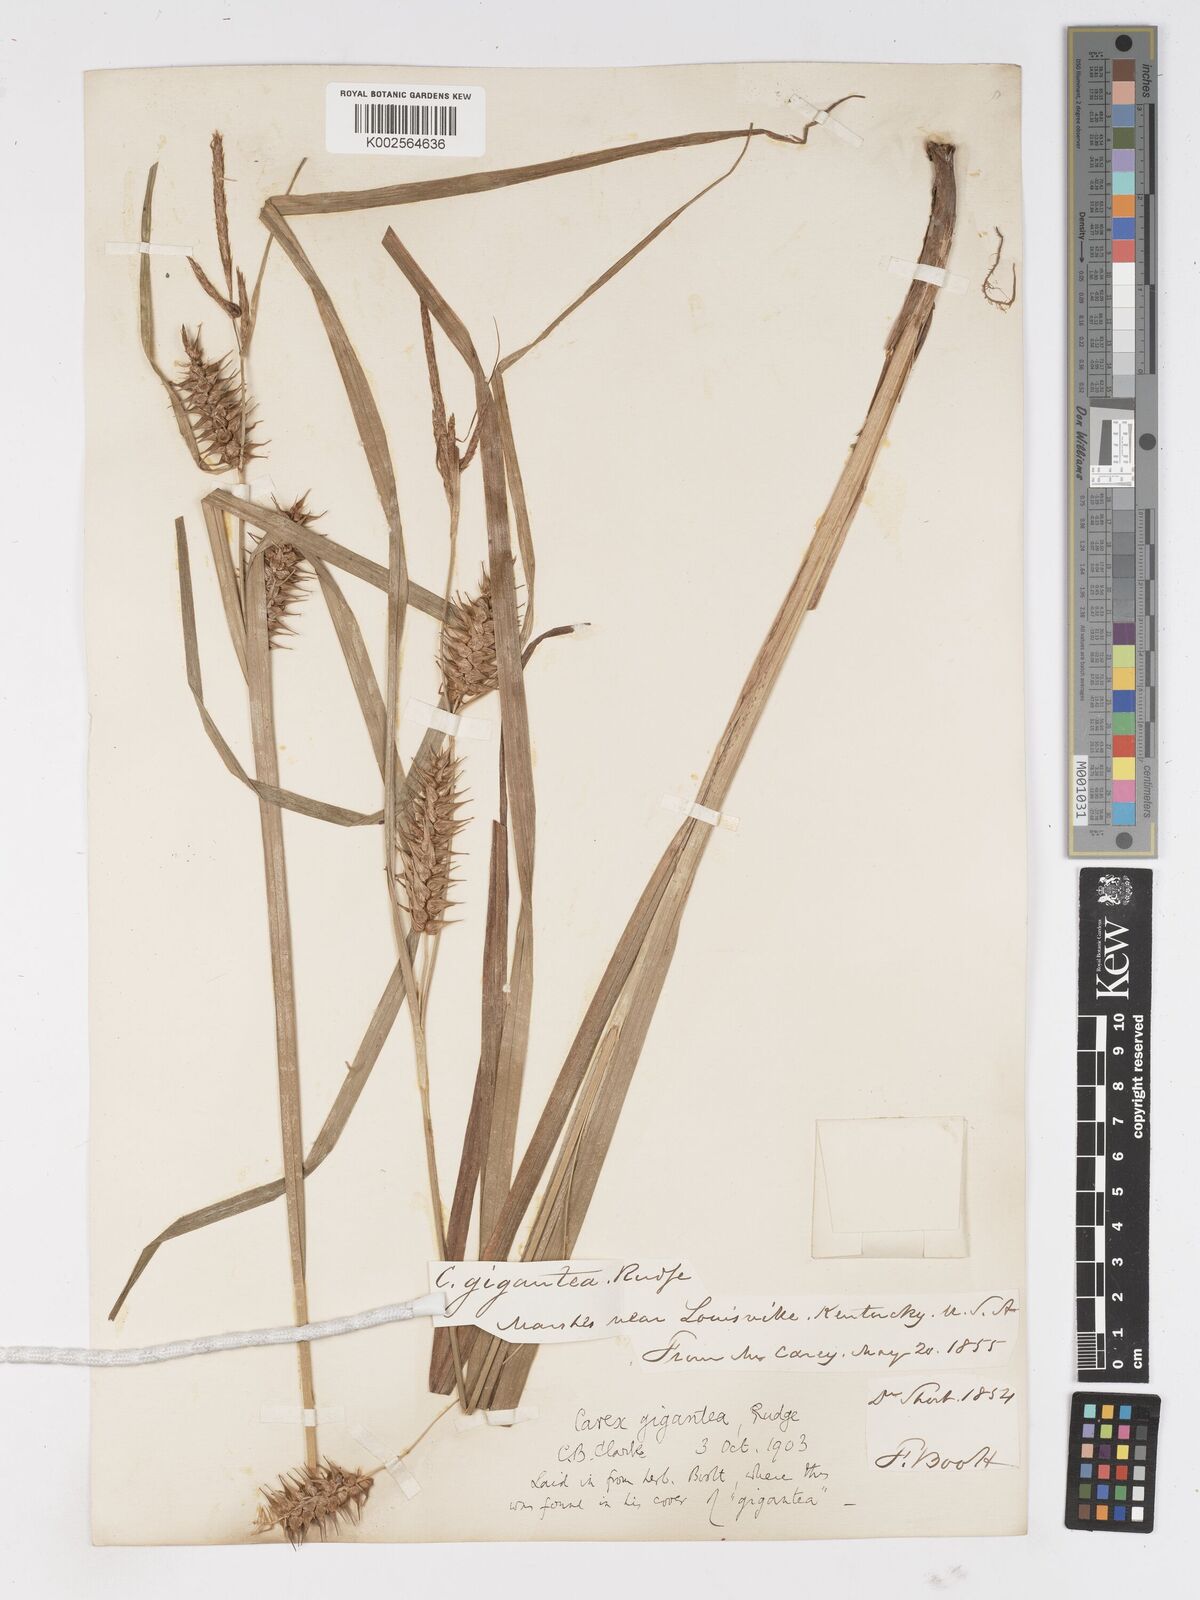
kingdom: Plantae
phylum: Tracheophyta
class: Liliopsida
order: Poales
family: Cyperaceae
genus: Carex
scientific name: Carex gigantea
